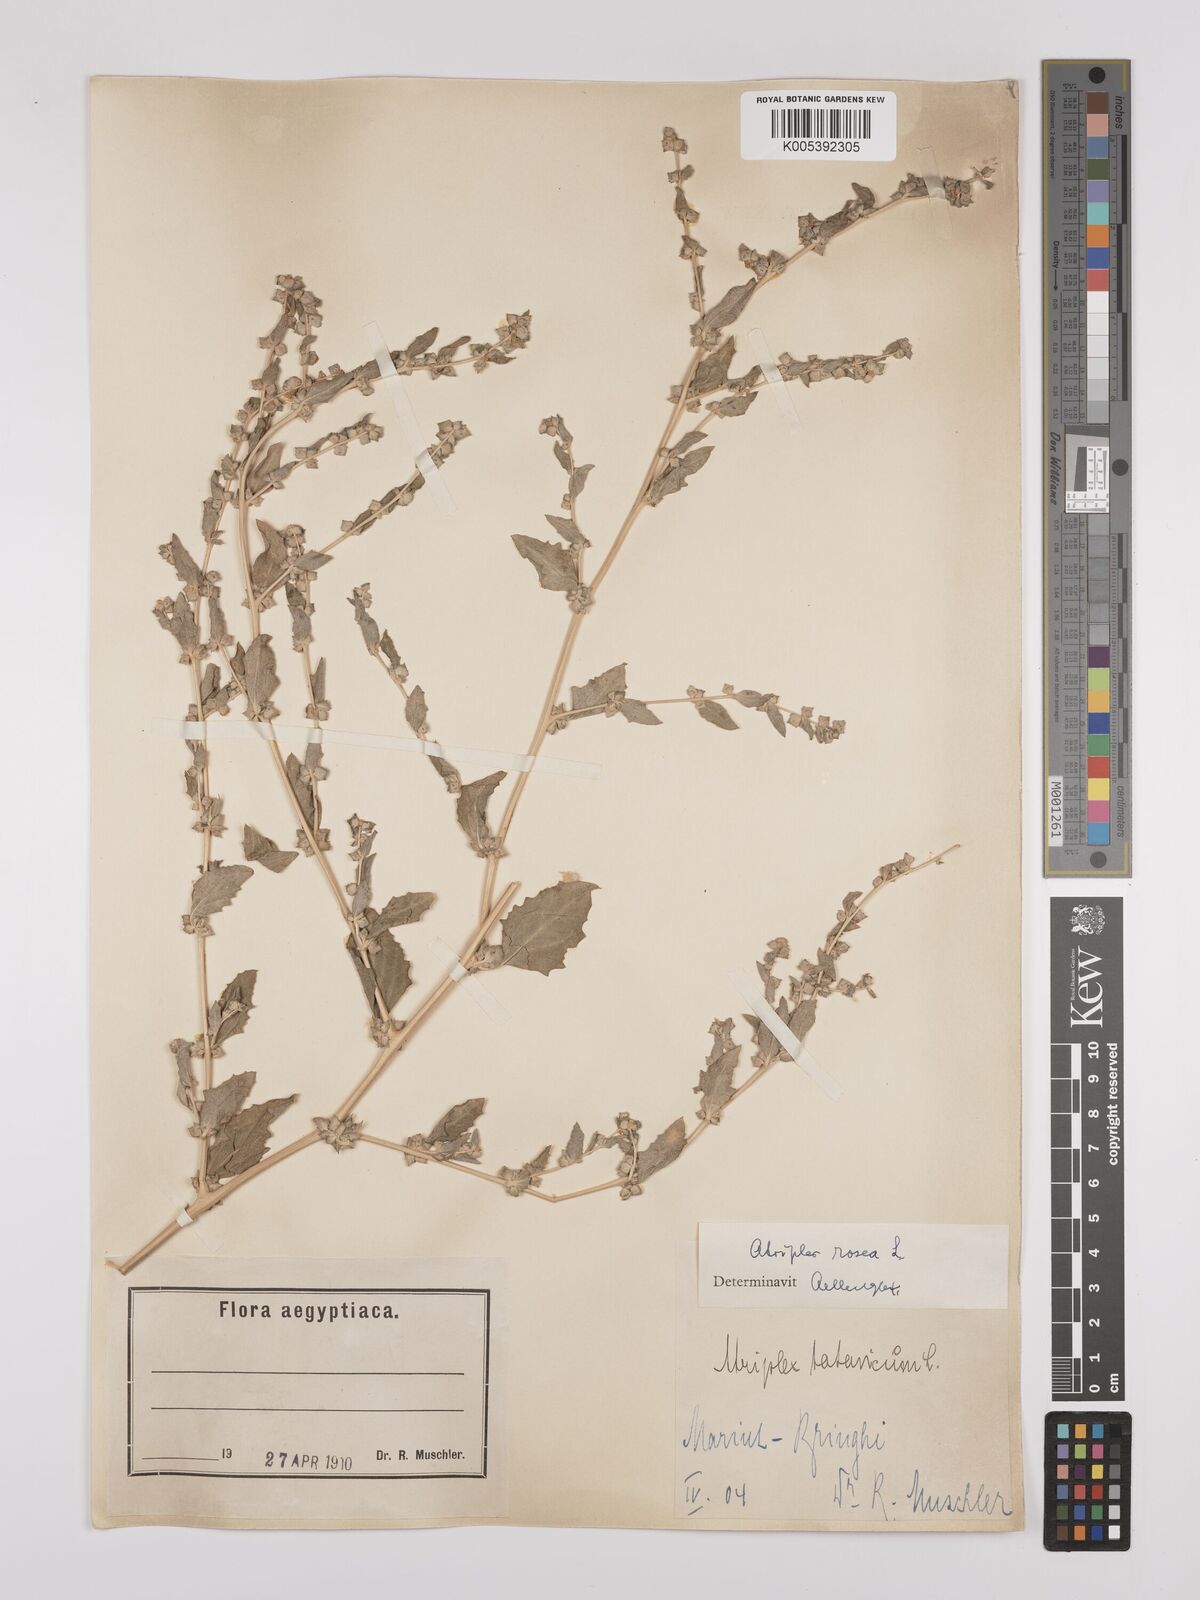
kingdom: Plantae
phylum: Tracheophyta
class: Magnoliopsida
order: Caryophyllales
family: Amaranthaceae
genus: Atriplex
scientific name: Atriplex
